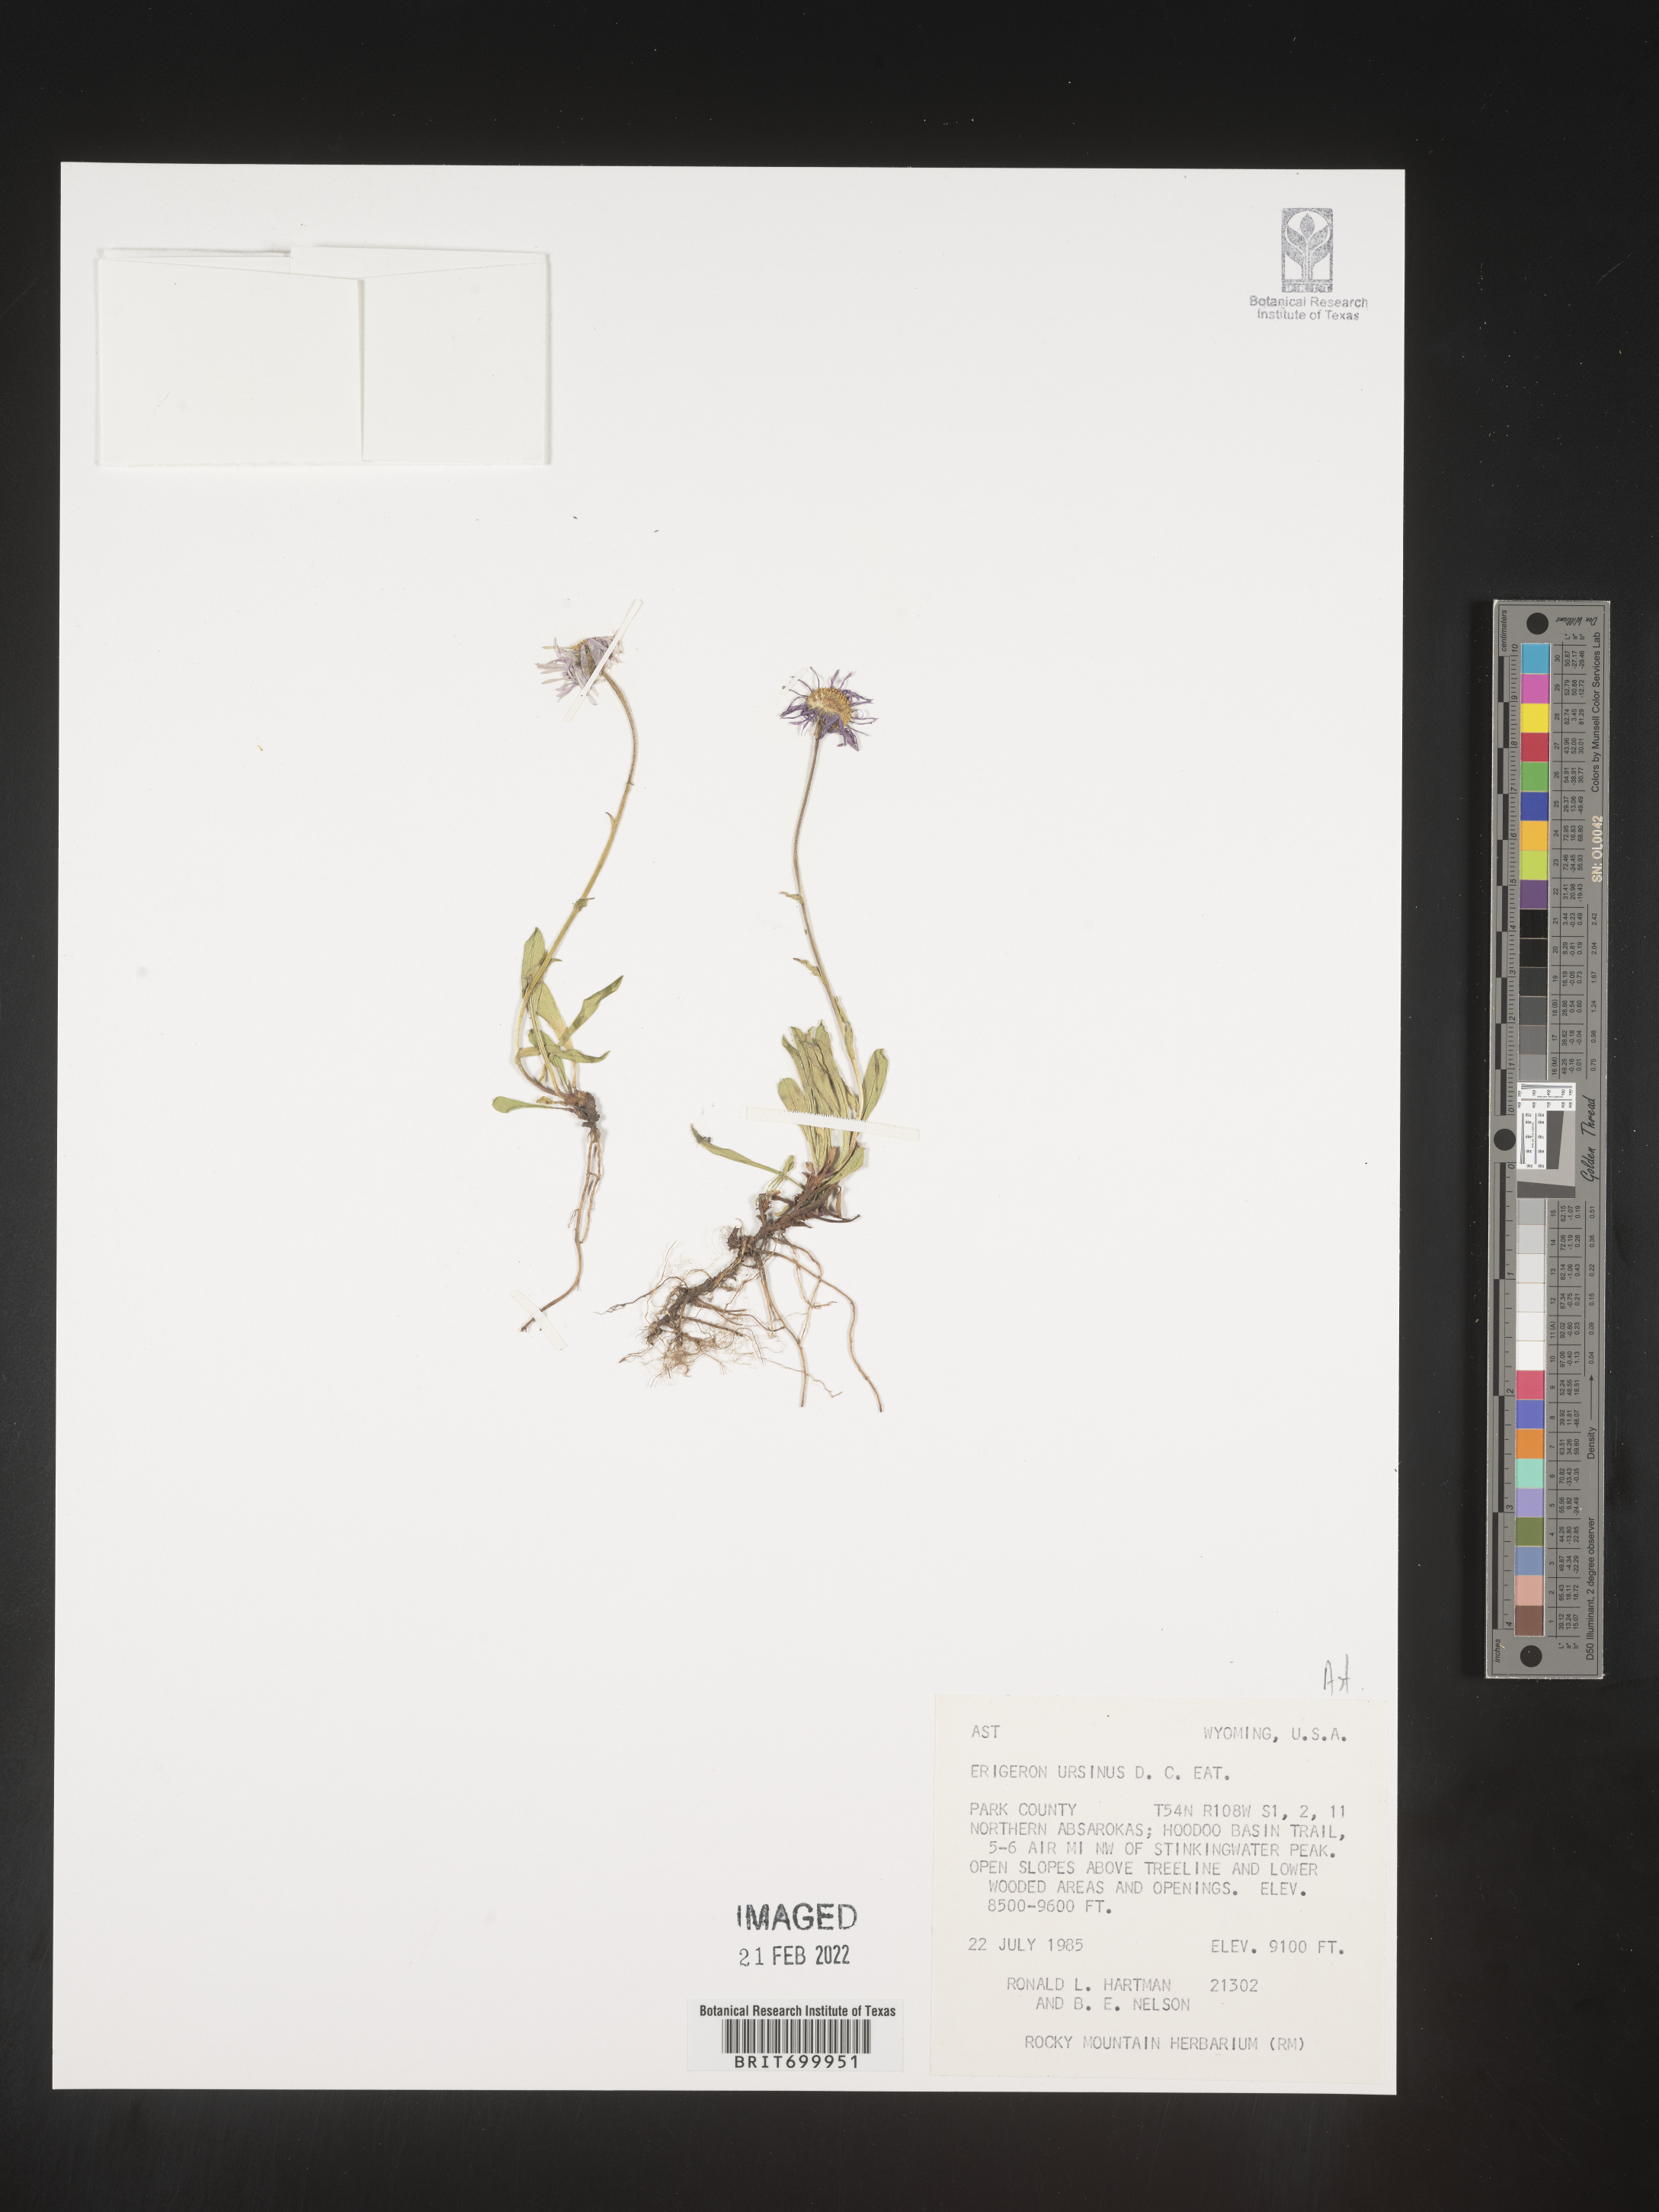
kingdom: Plantae
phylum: Tracheophyta
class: Magnoliopsida
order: Asterales
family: Asteraceae
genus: Erigeron
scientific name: Erigeron ursinus
